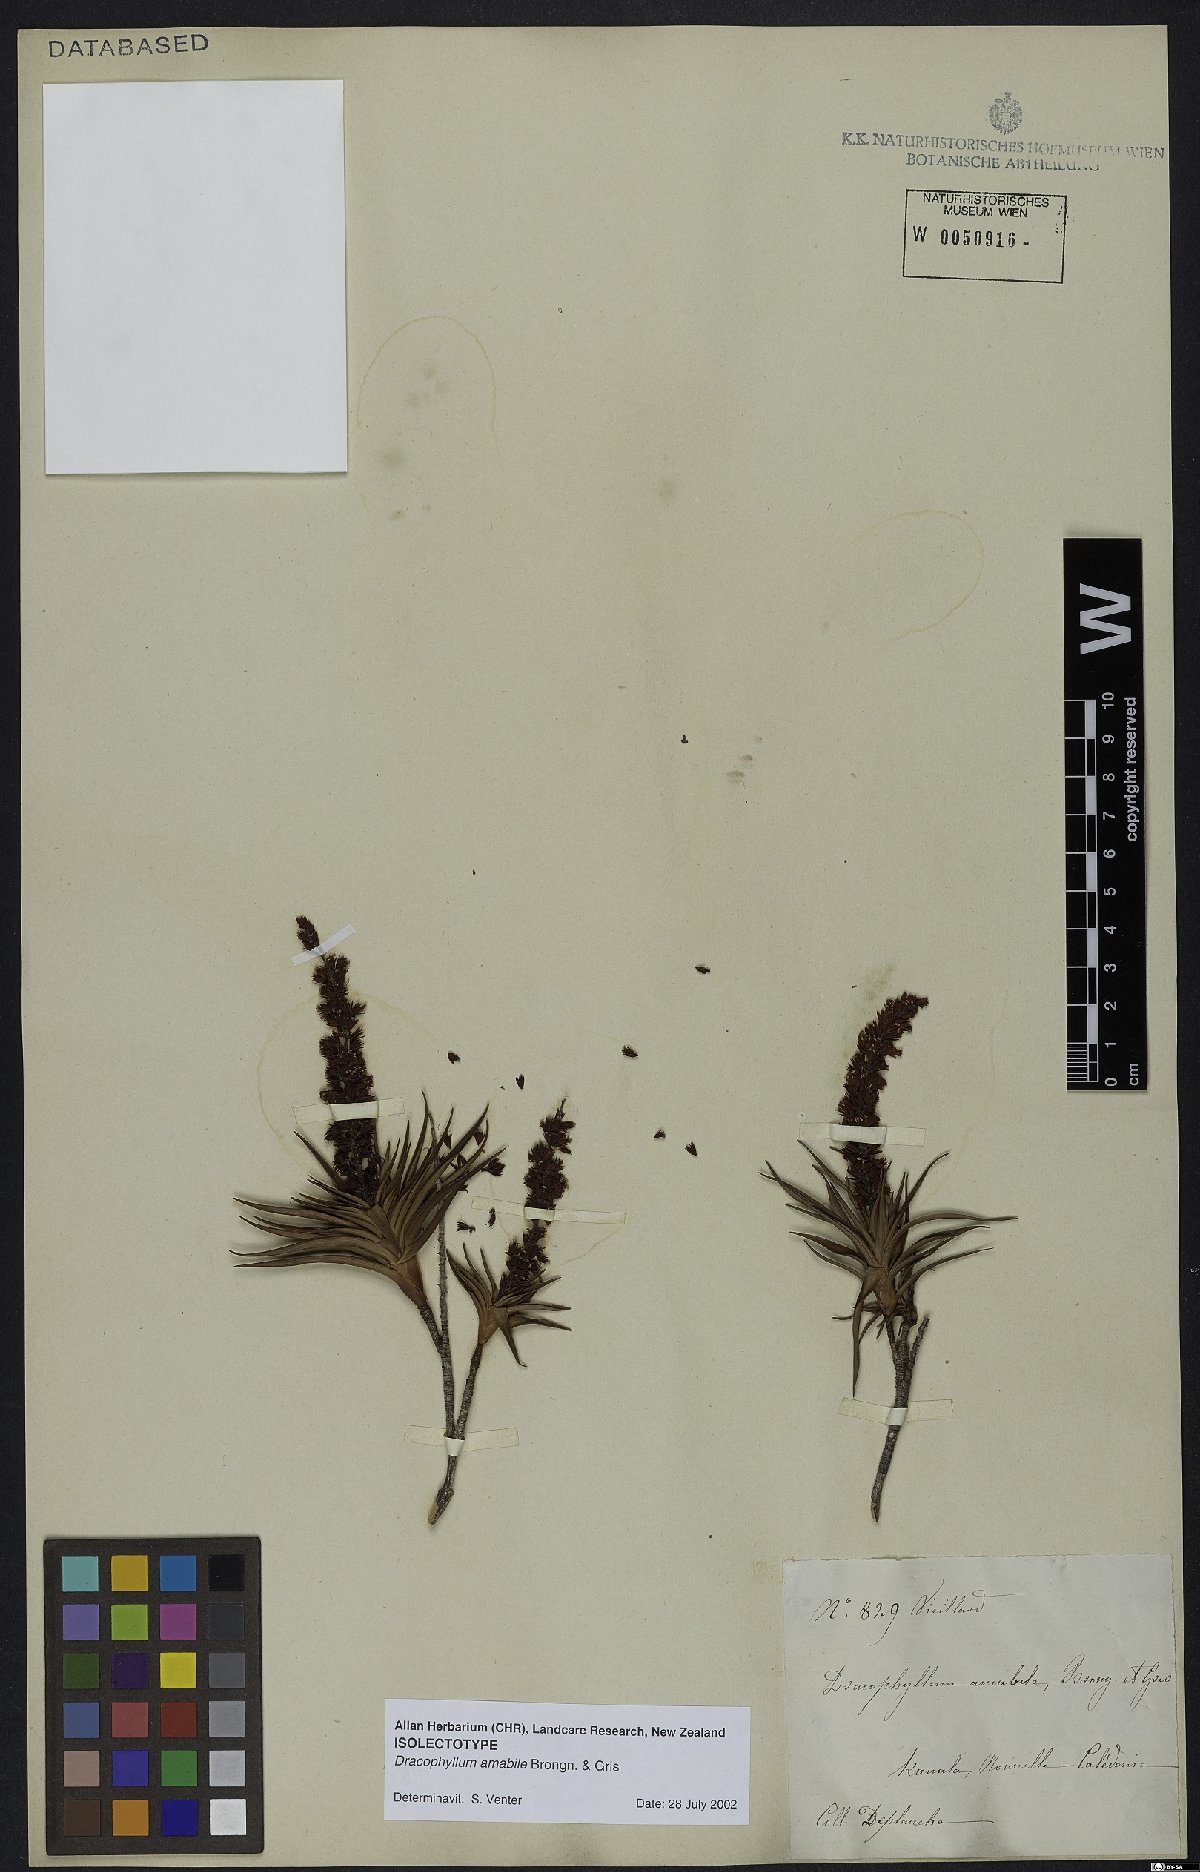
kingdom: Plantae
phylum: Tracheophyta
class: Magnoliopsida
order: Ericales
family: Ericaceae
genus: Dracophyllum
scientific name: Dracophyllum ramosum
